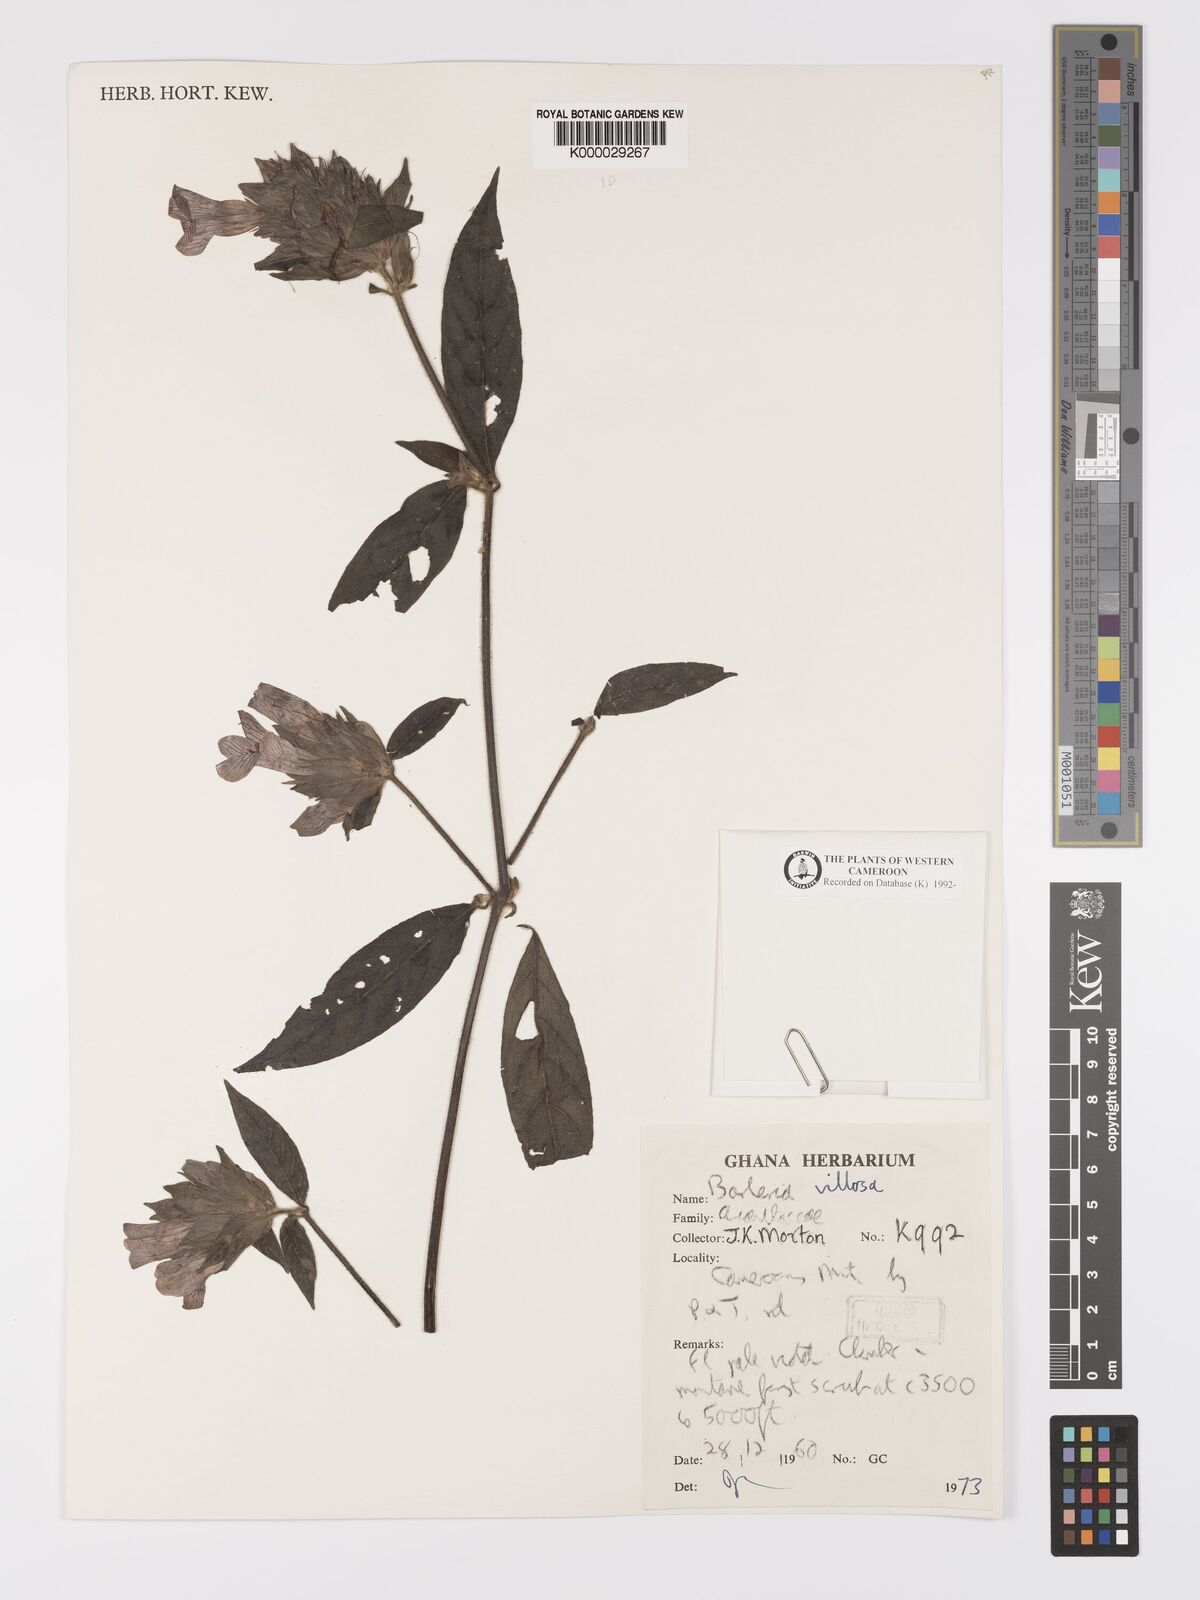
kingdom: Plantae
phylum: Tracheophyta
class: Magnoliopsida
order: Lamiales
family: Acanthaceae
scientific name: Acanthaceae
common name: Acanthaceae
